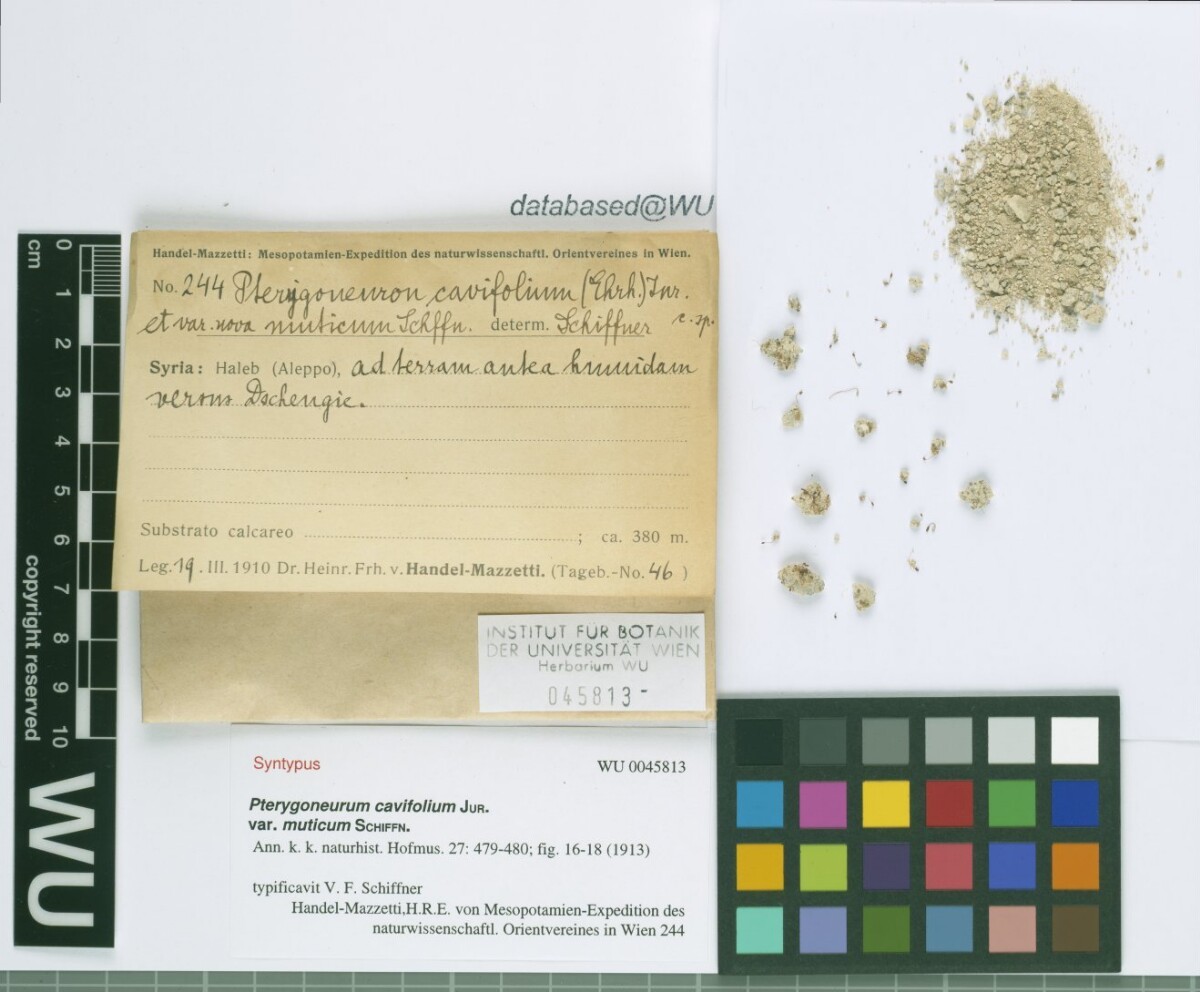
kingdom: Plantae
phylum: Bryophyta
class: Bryopsida
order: Pottiales
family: Pottiaceae
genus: Pterygoneurum
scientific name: Pterygoneurum ovatum
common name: Ovate pterygoneurum
